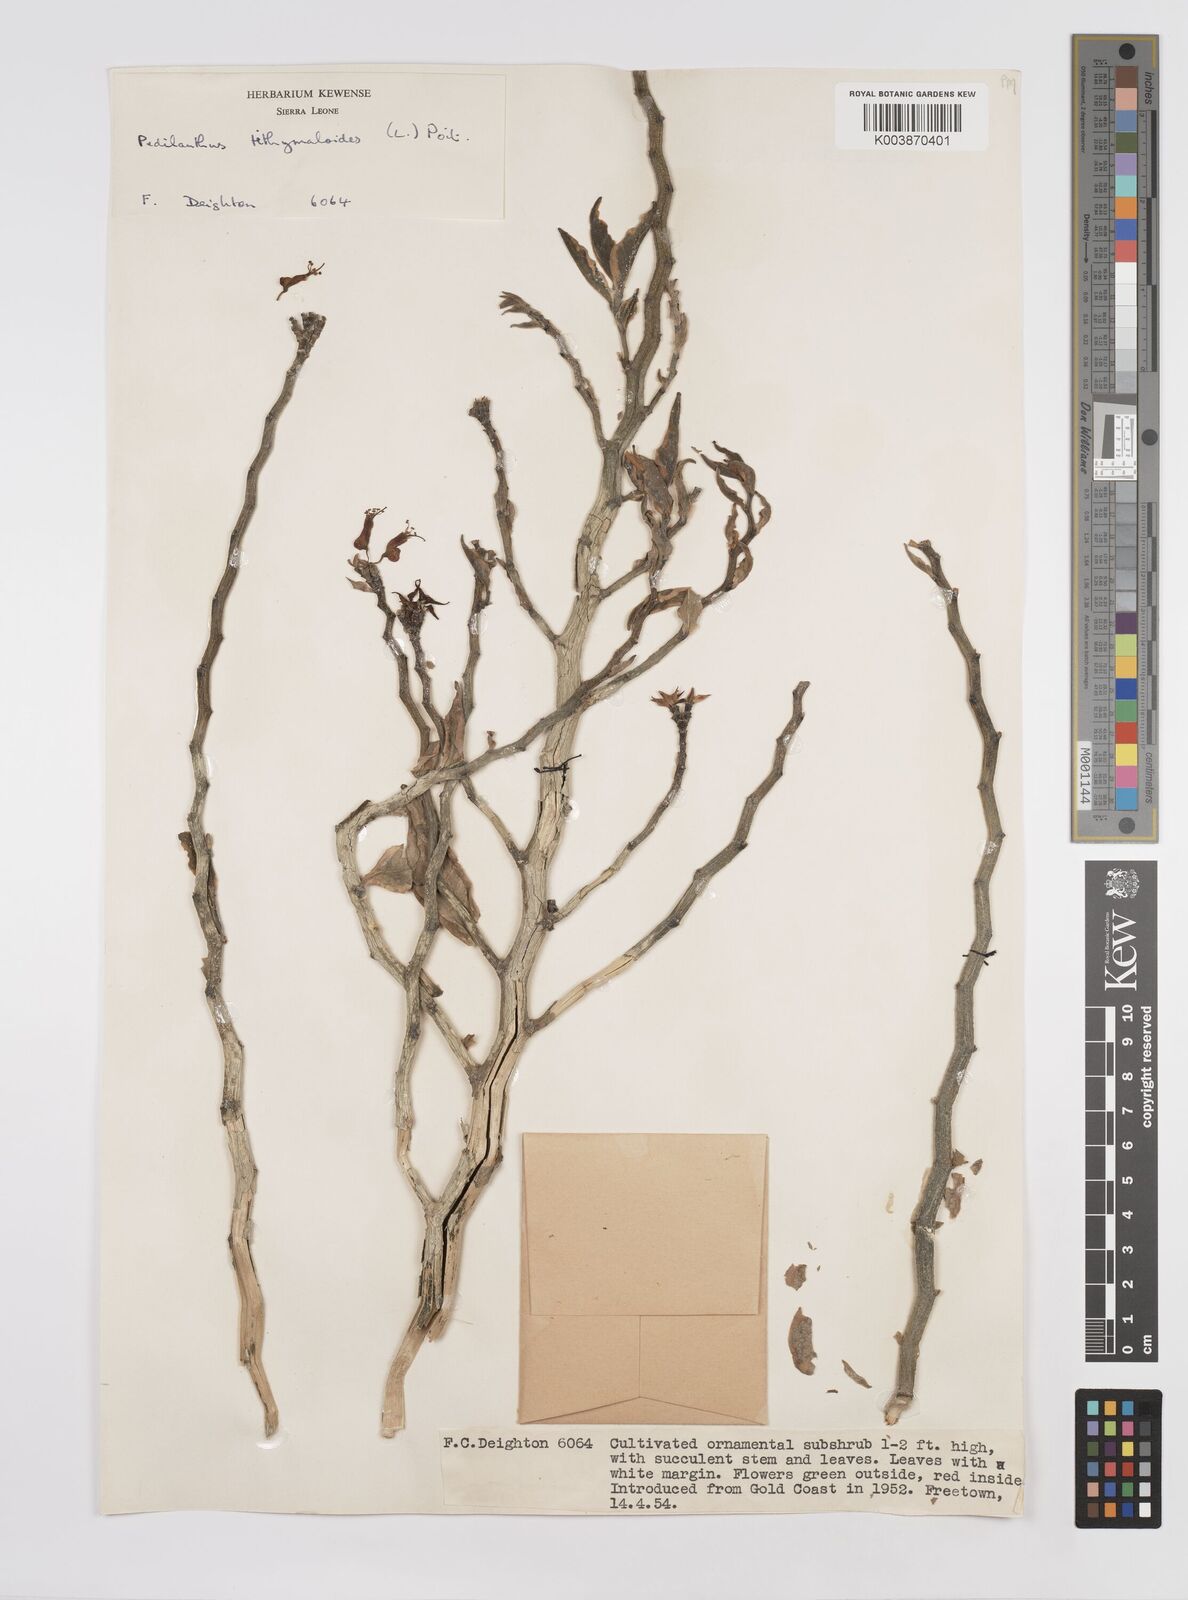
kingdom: Plantae
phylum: Tracheophyta
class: Magnoliopsida
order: Malpighiales
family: Euphorbiaceae
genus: Euphorbia
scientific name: Euphorbia tithymaloides
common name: Slipperplant
